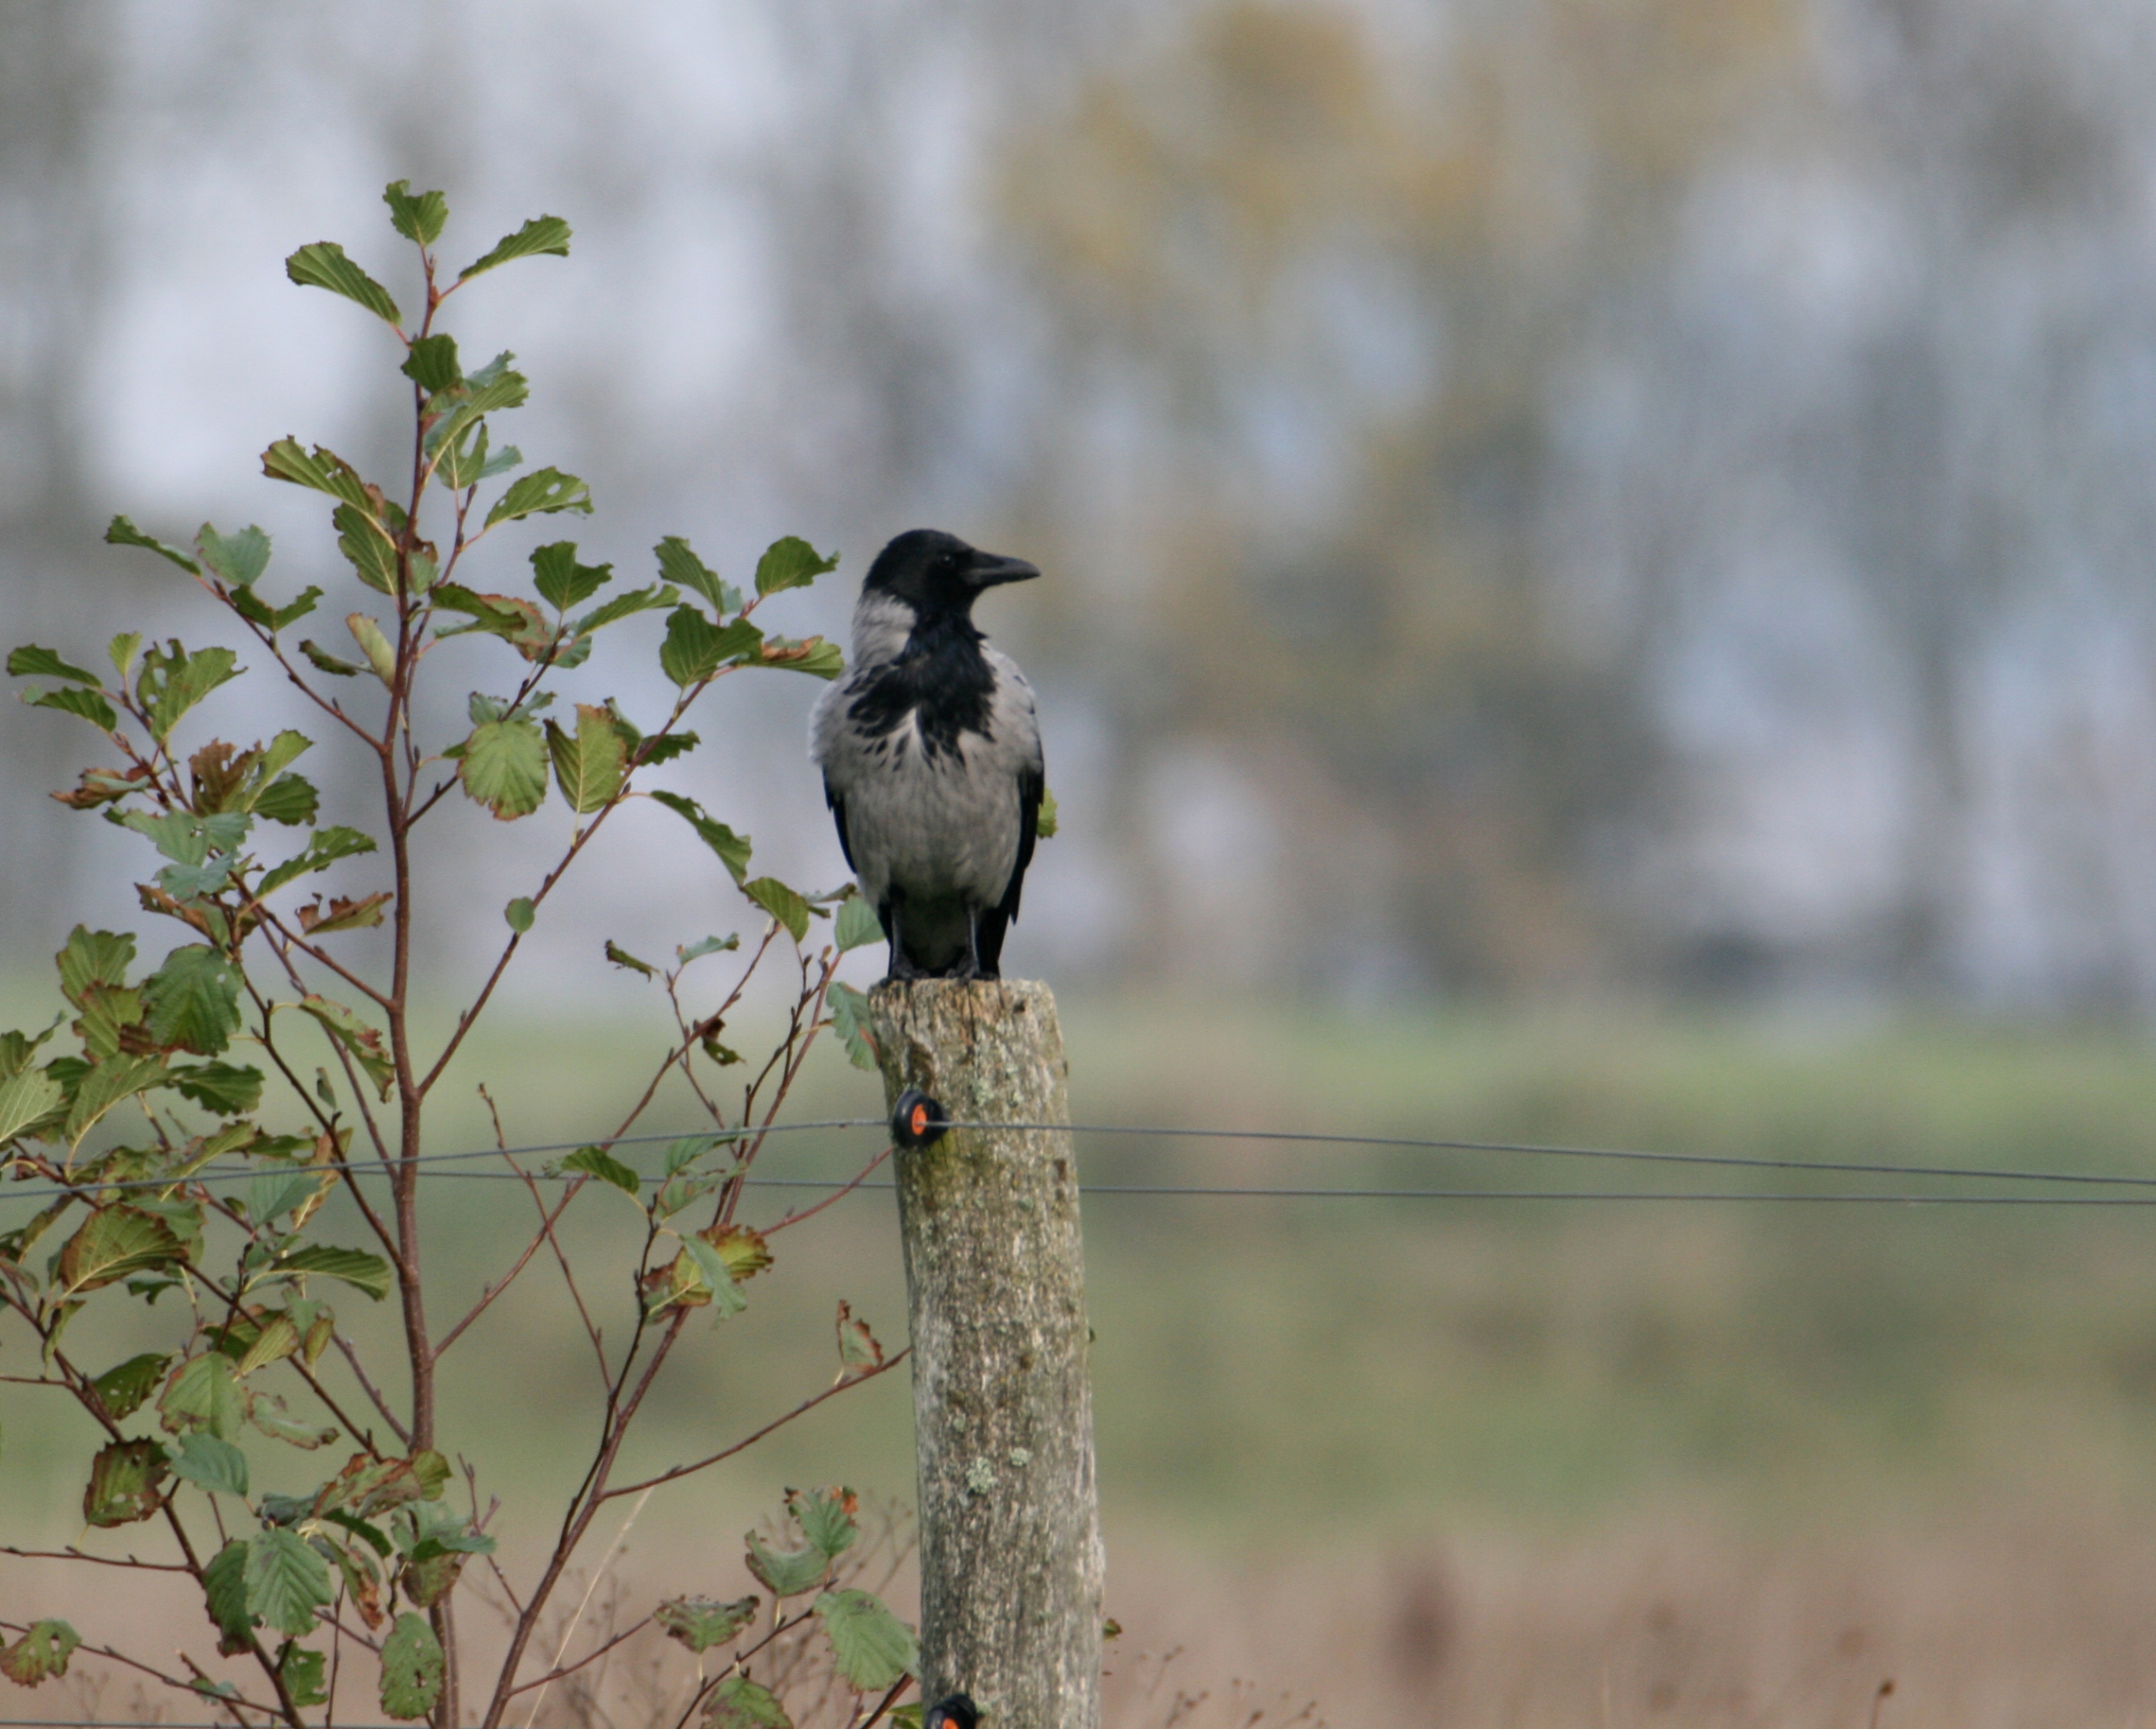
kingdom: Animalia
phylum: Chordata
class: Aves
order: Passeriformes
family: Corvidae
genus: Corvus
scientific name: Corvus cornix
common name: Gråkrage
